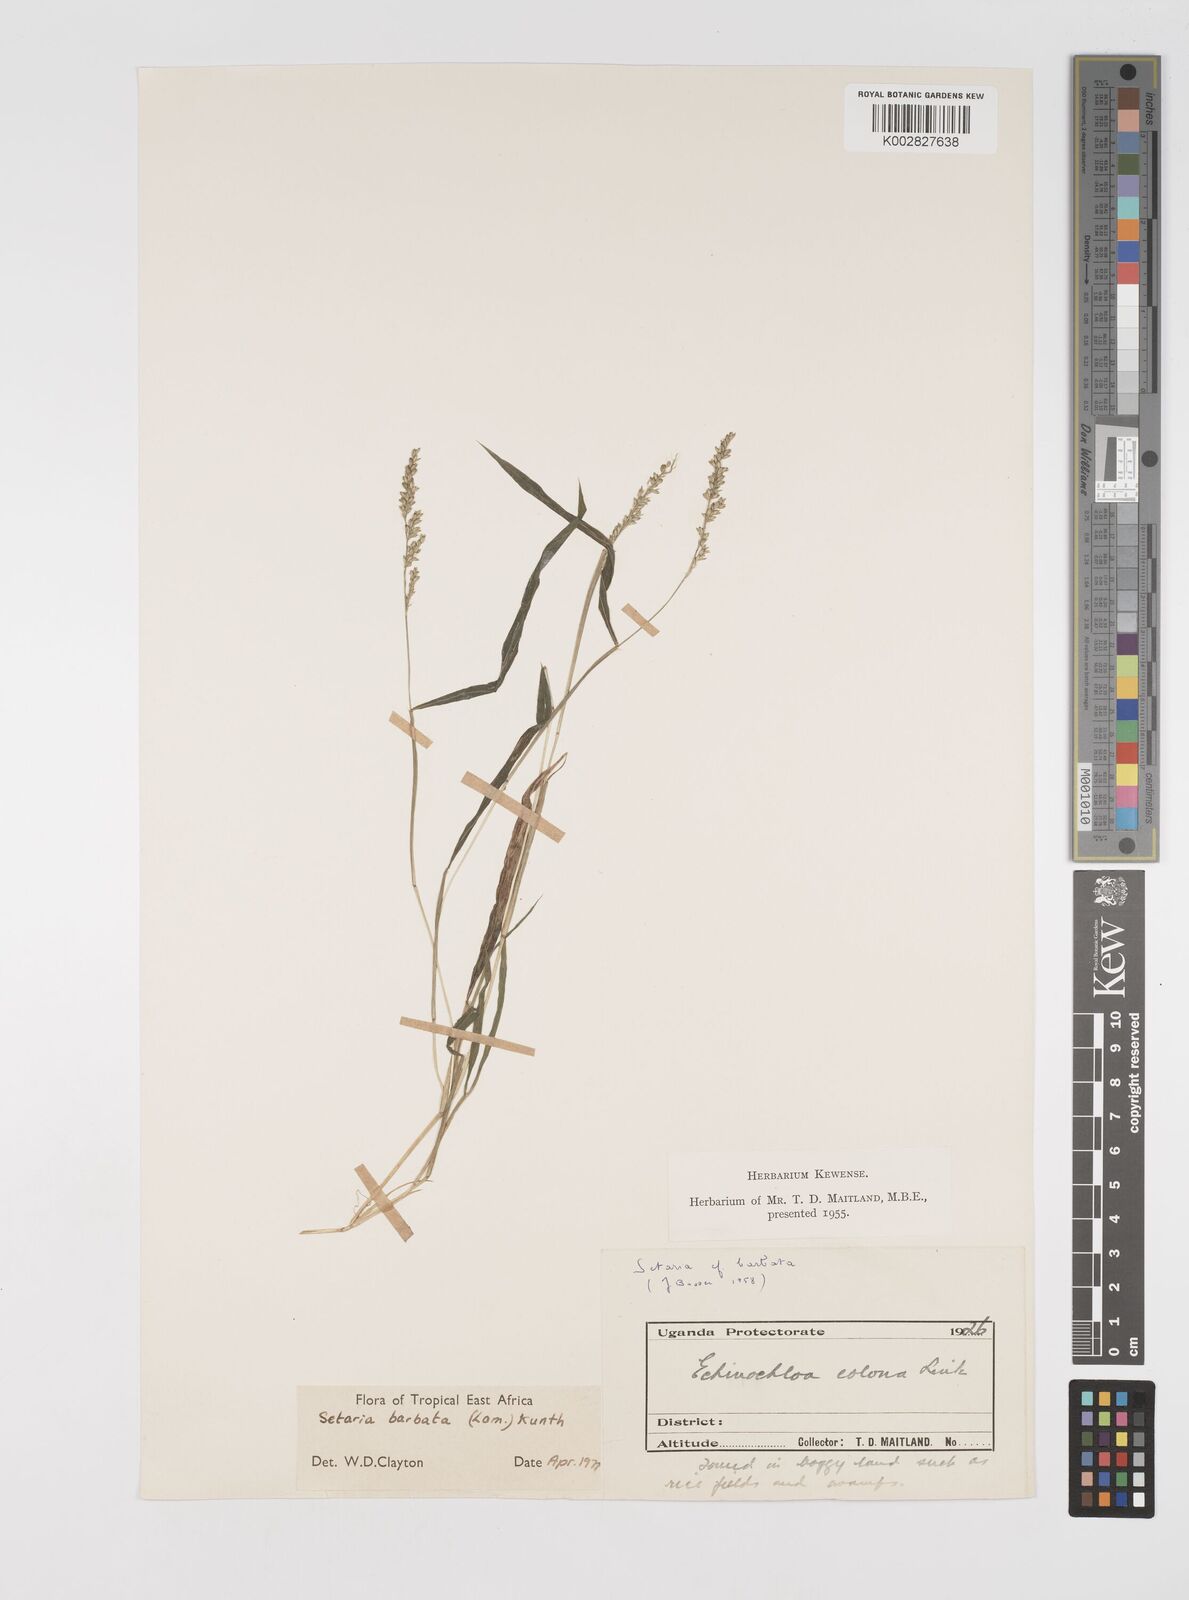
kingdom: Plantae
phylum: Tracheophyta
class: Liliopsida
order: Poales
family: Poaceae
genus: Setaria
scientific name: Setaria barbata
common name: East indian bristlegrass
